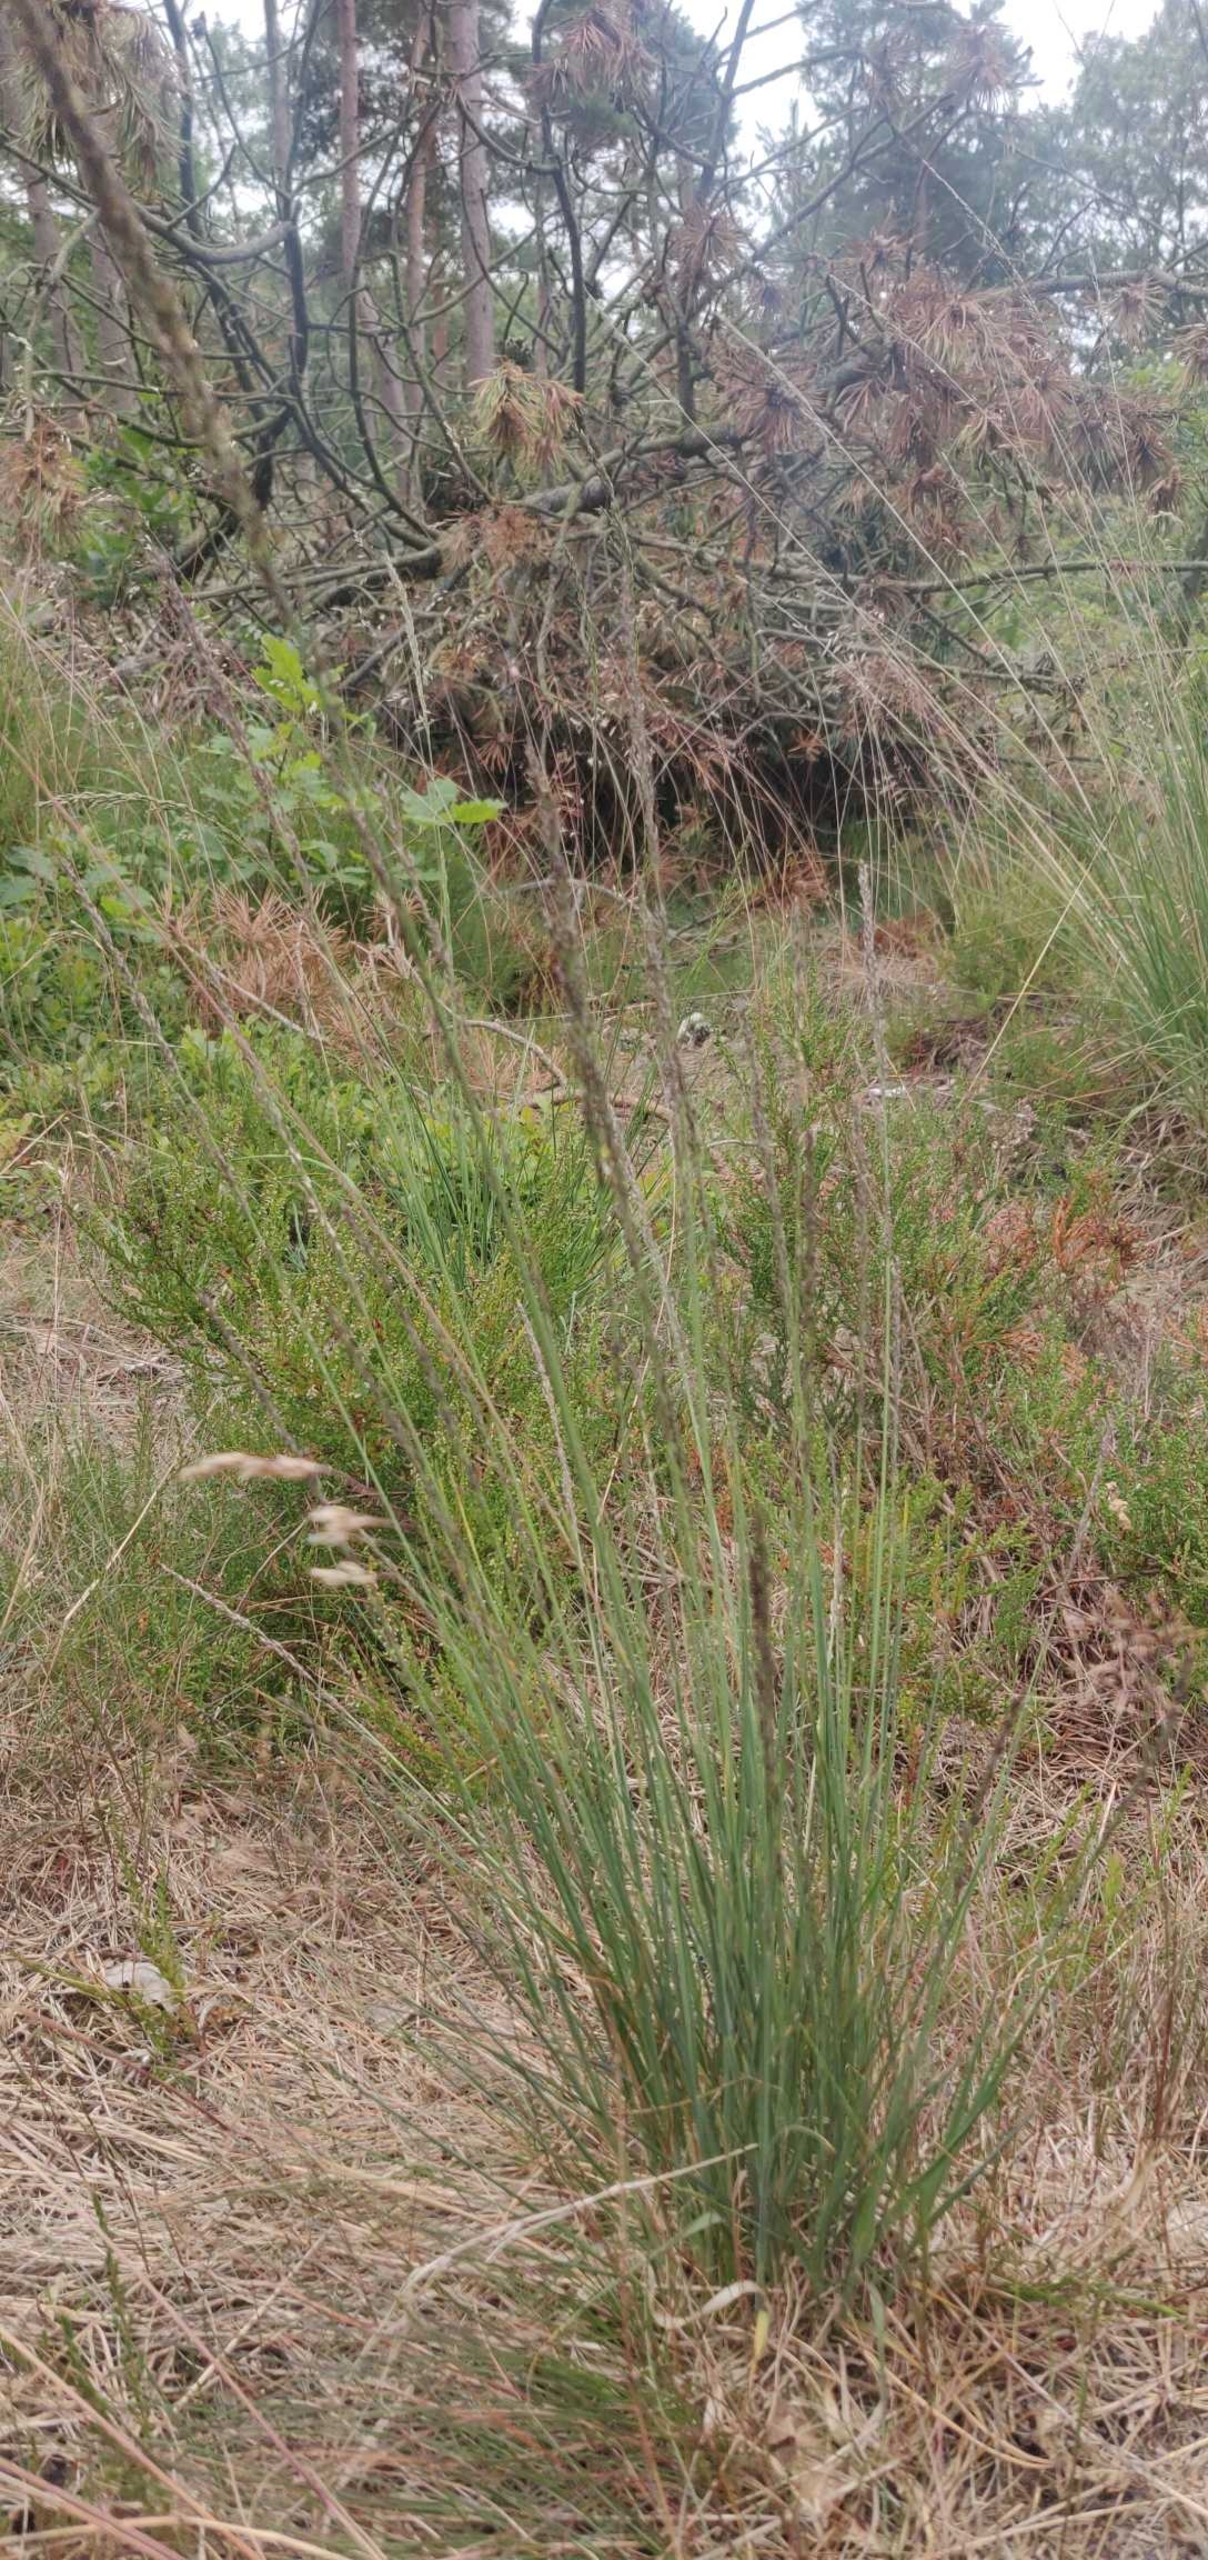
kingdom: Plantae
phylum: Tracheophyta
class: Liliopsida
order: Poales
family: Poaceae
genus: Molinia
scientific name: Molinia caerulea
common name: Blåtop
